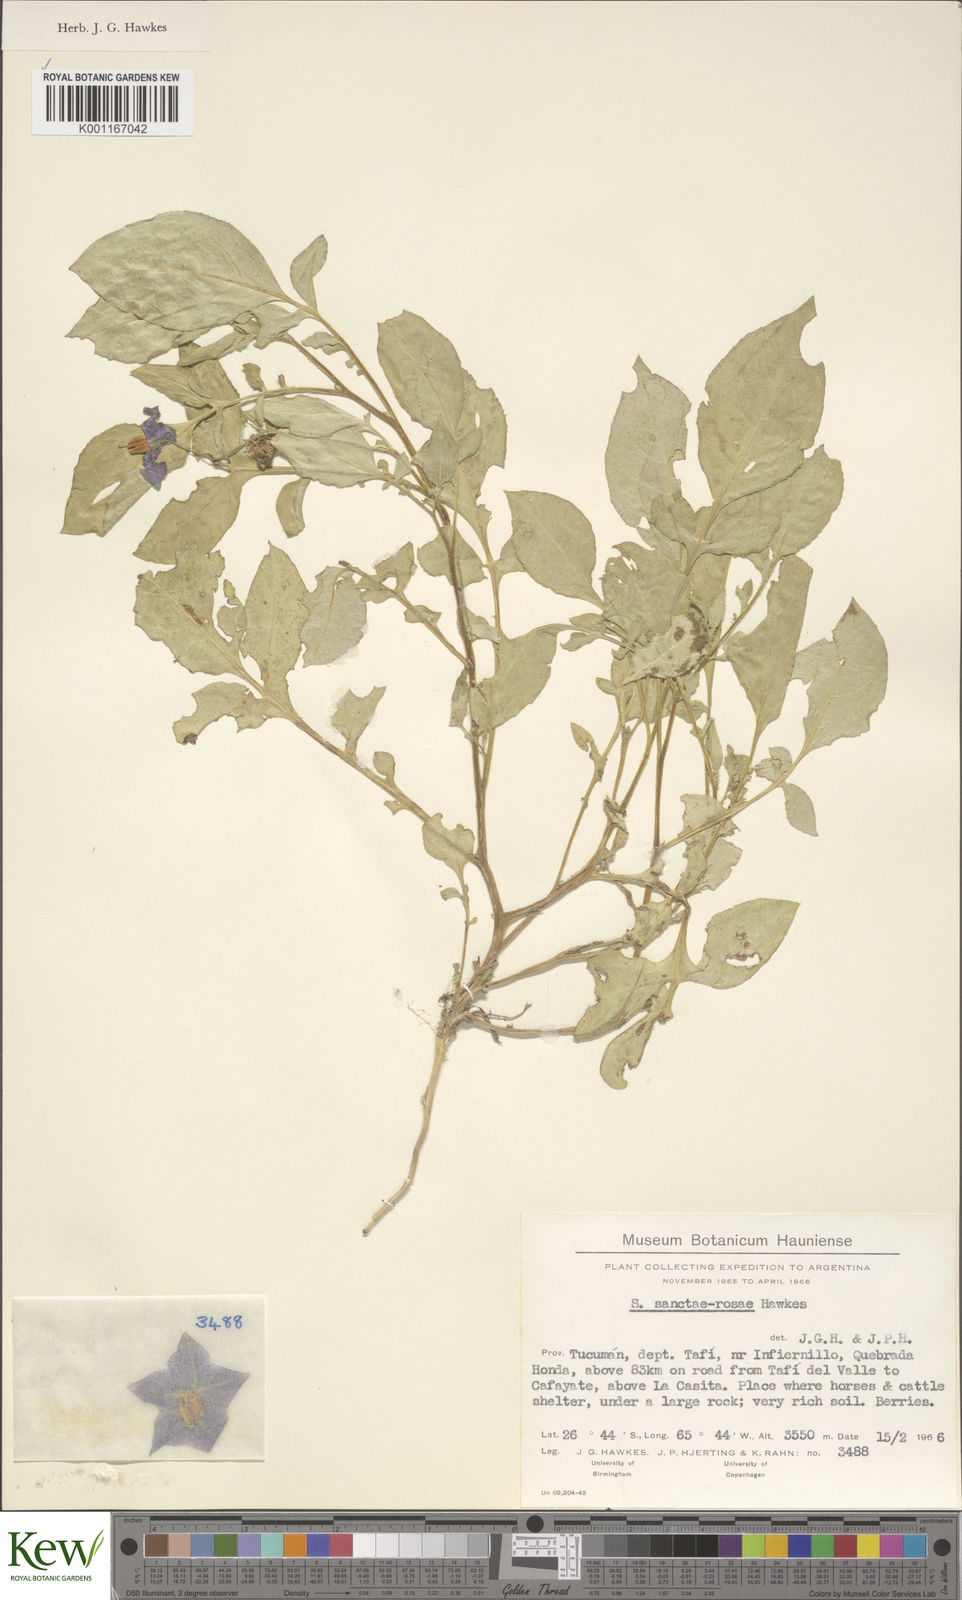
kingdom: Plantae
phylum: Tracheophyta
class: Magnoliopsida
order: Solanales
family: Solanaceae
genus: Solanum
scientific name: Solanum boliviense
